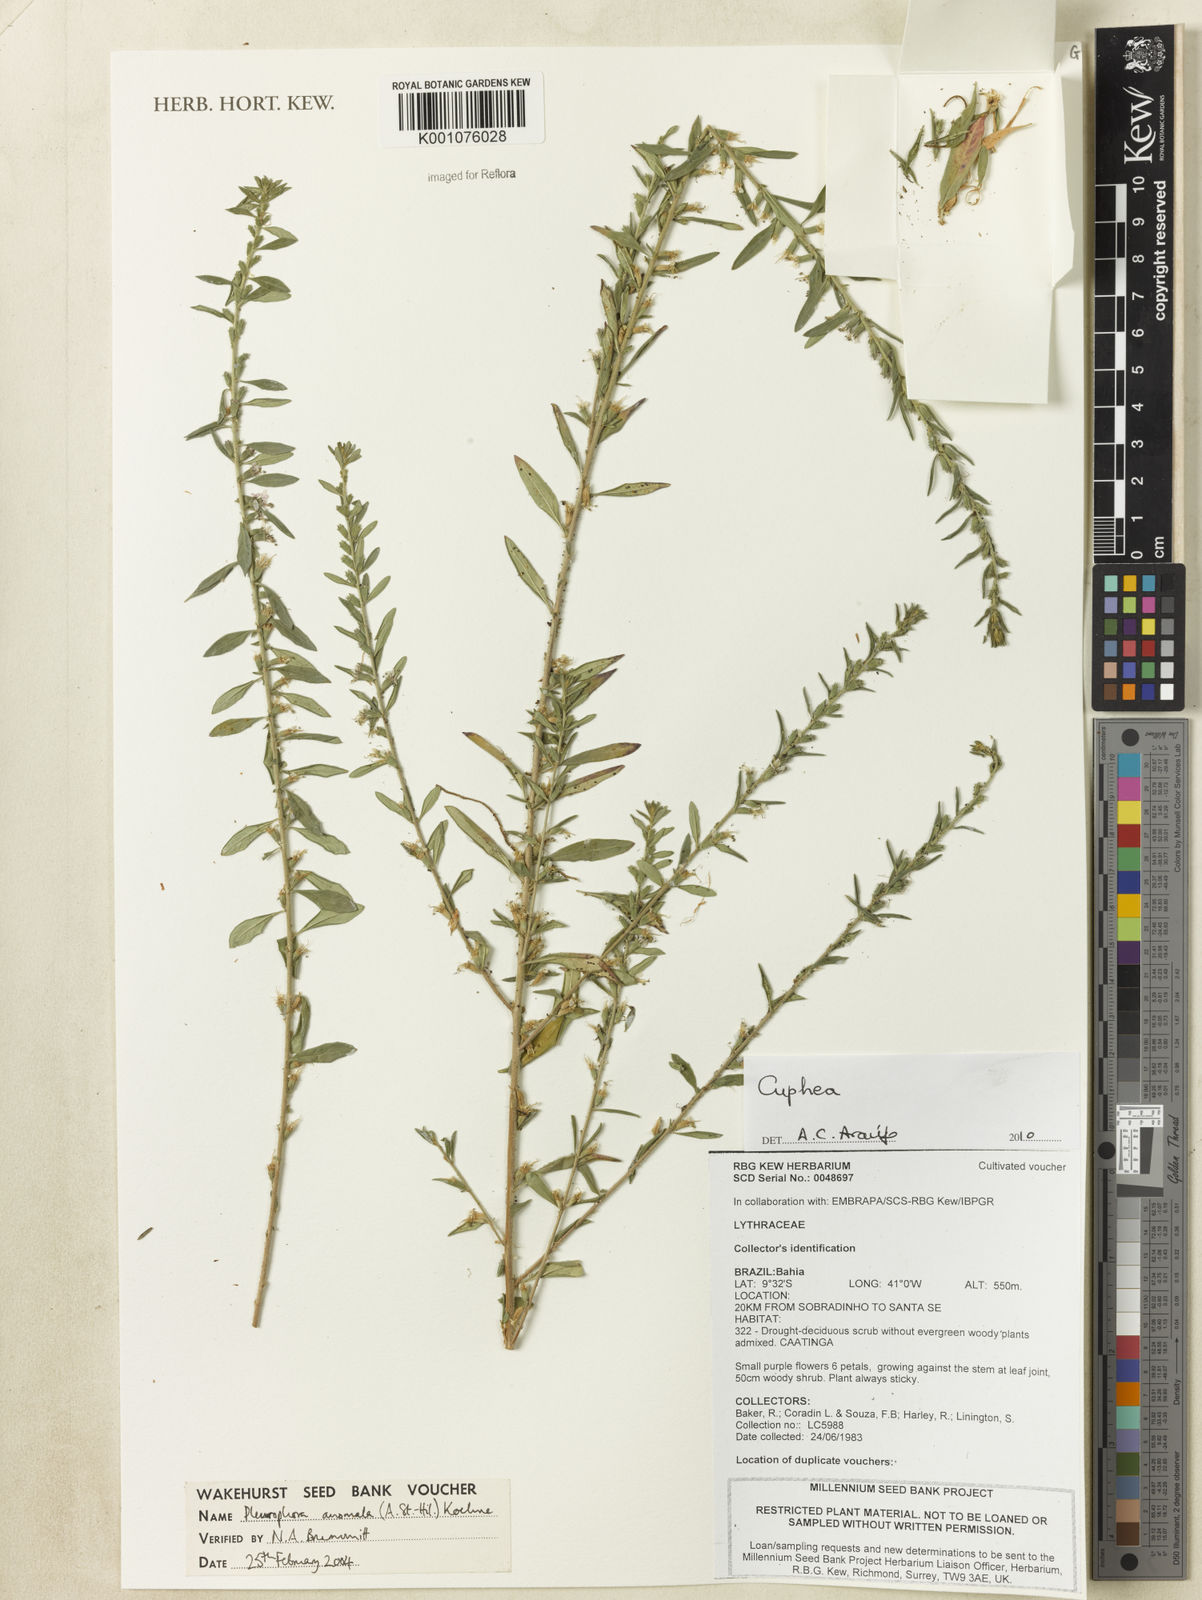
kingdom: Plantae
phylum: Tracheophyta
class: Magnoliopsida
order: Myrtales
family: Lythraceae
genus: Cuphea
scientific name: Cuphea
